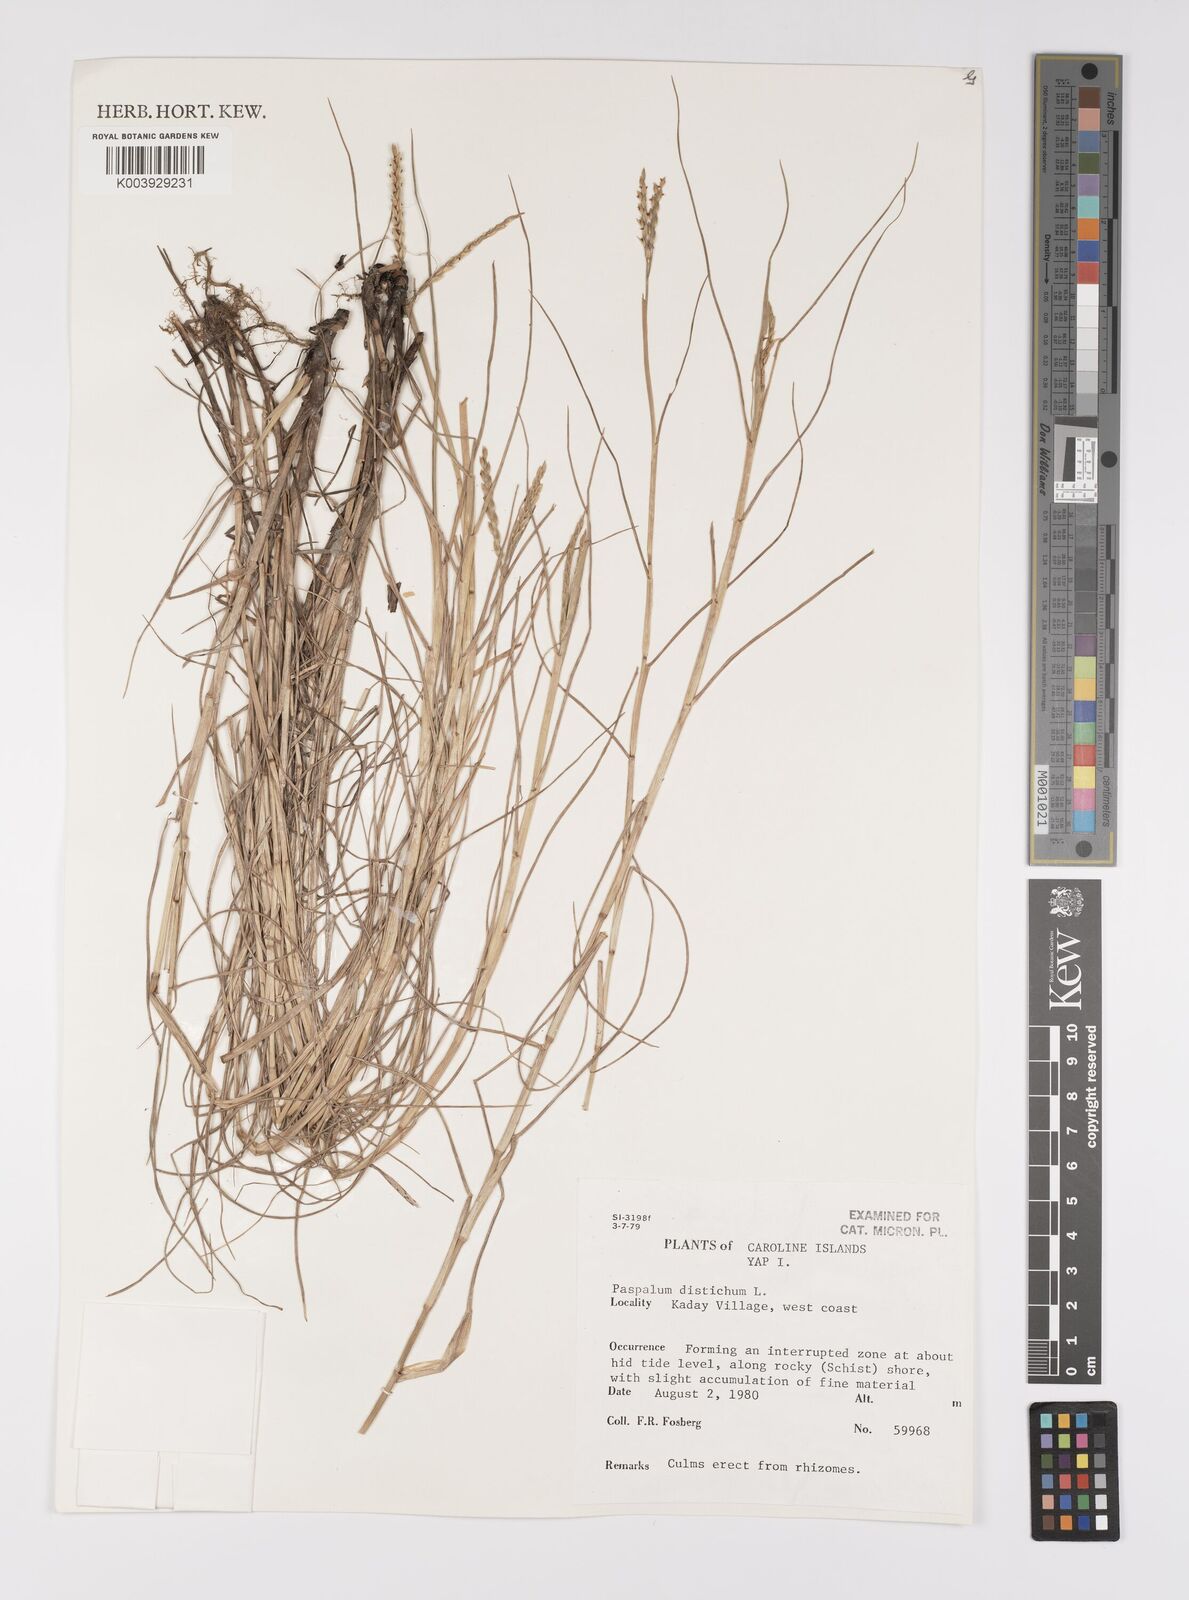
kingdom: Plantae
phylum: Tracheophyta
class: Liliopsida
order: Poales
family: Poaceae
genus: Paspalum
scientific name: Paspalum vaginatum
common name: Seashore paspalum
